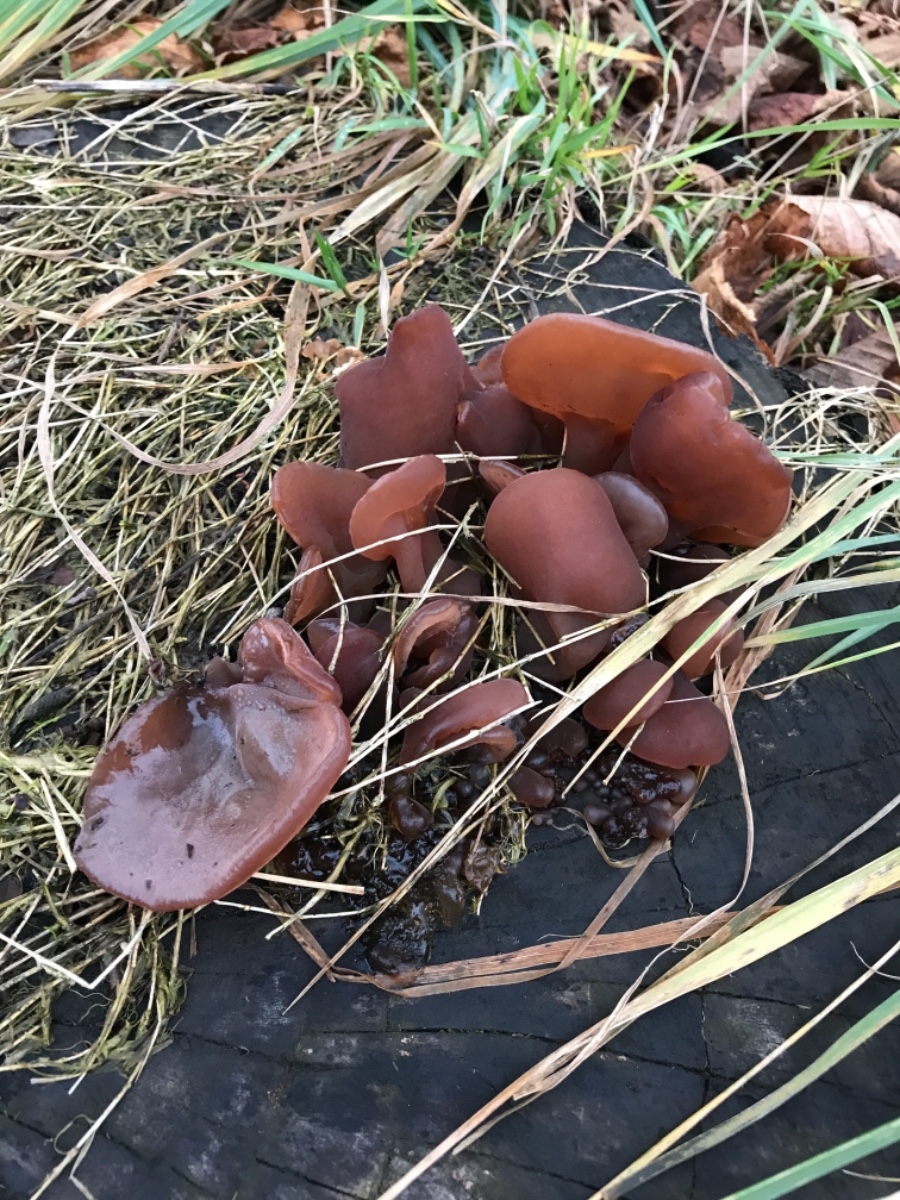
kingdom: Fungi
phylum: Basidiomycota
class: Agaricomycetes
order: Auriculariales
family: Auriculariaceae
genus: Auricularia
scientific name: Auricularia auricula-judae
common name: almindelig judasøre
